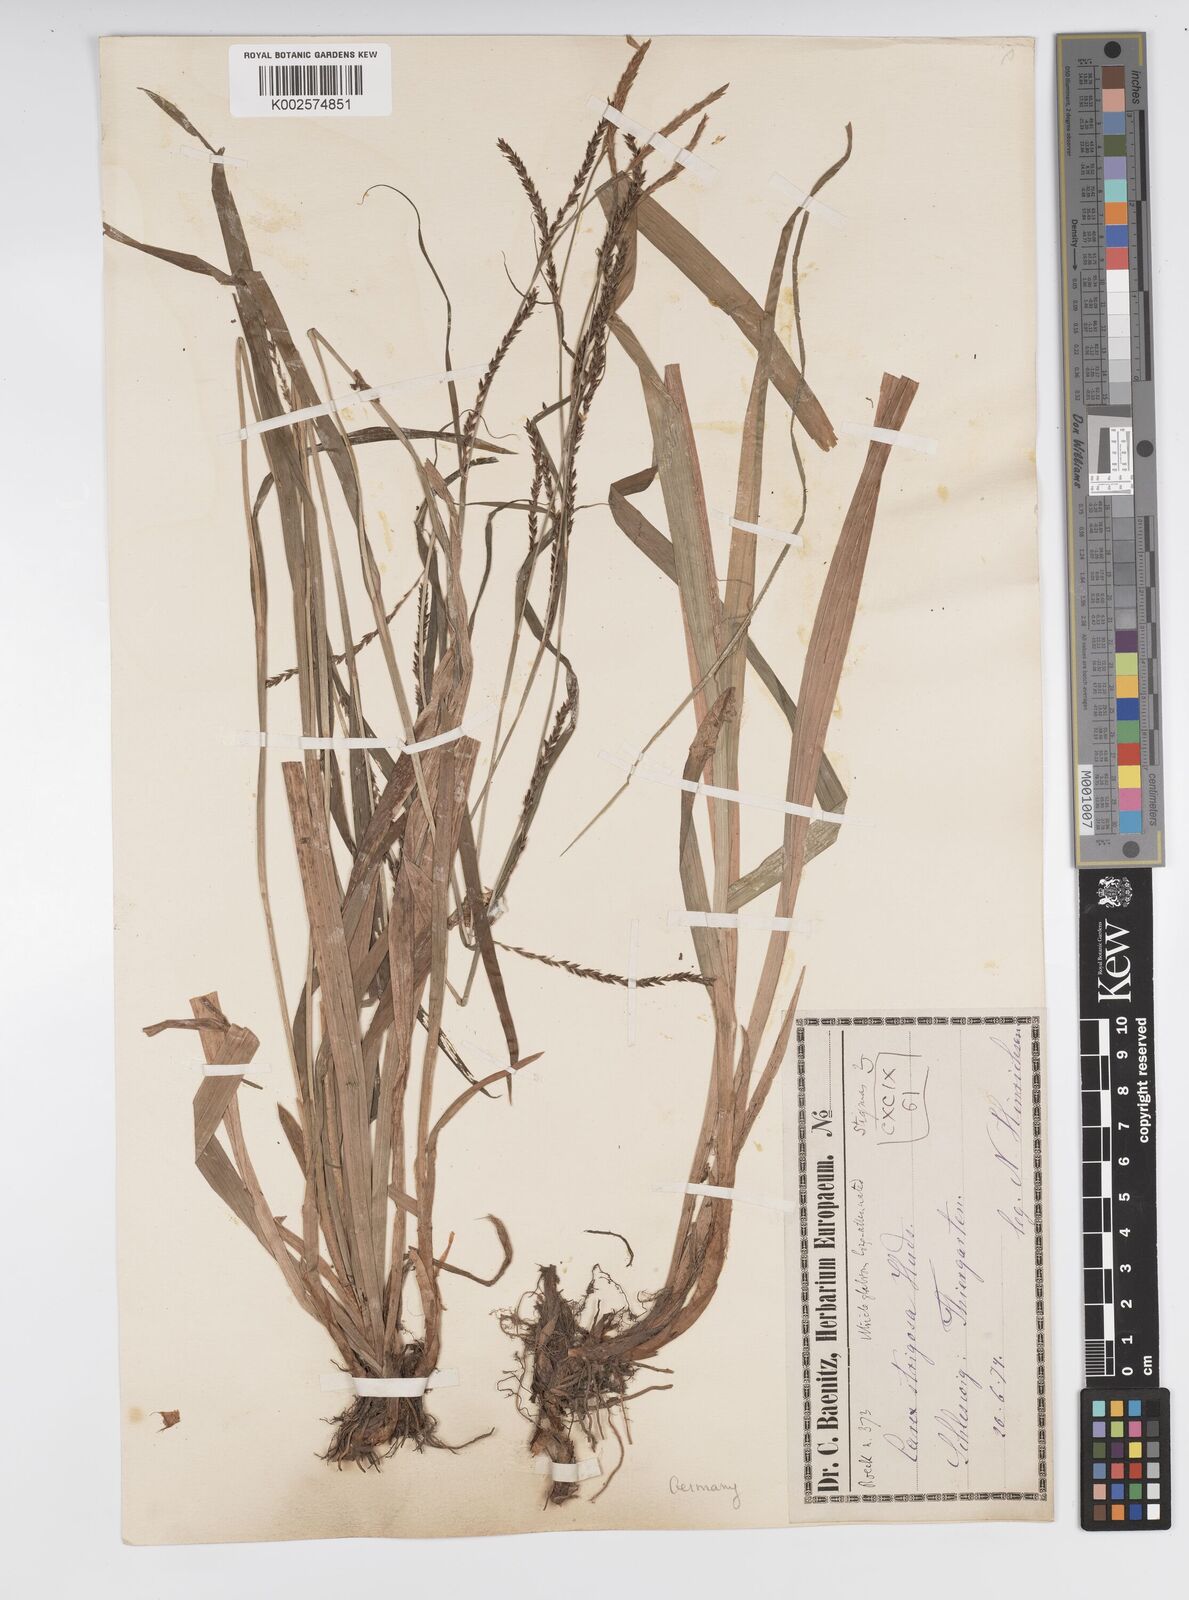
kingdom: Plantae
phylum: Tracheophyta
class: Liliopsida
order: Poales
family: Cyperaceae
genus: Carex
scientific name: Carex strigosa
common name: Thin-spiked wood-sedge
